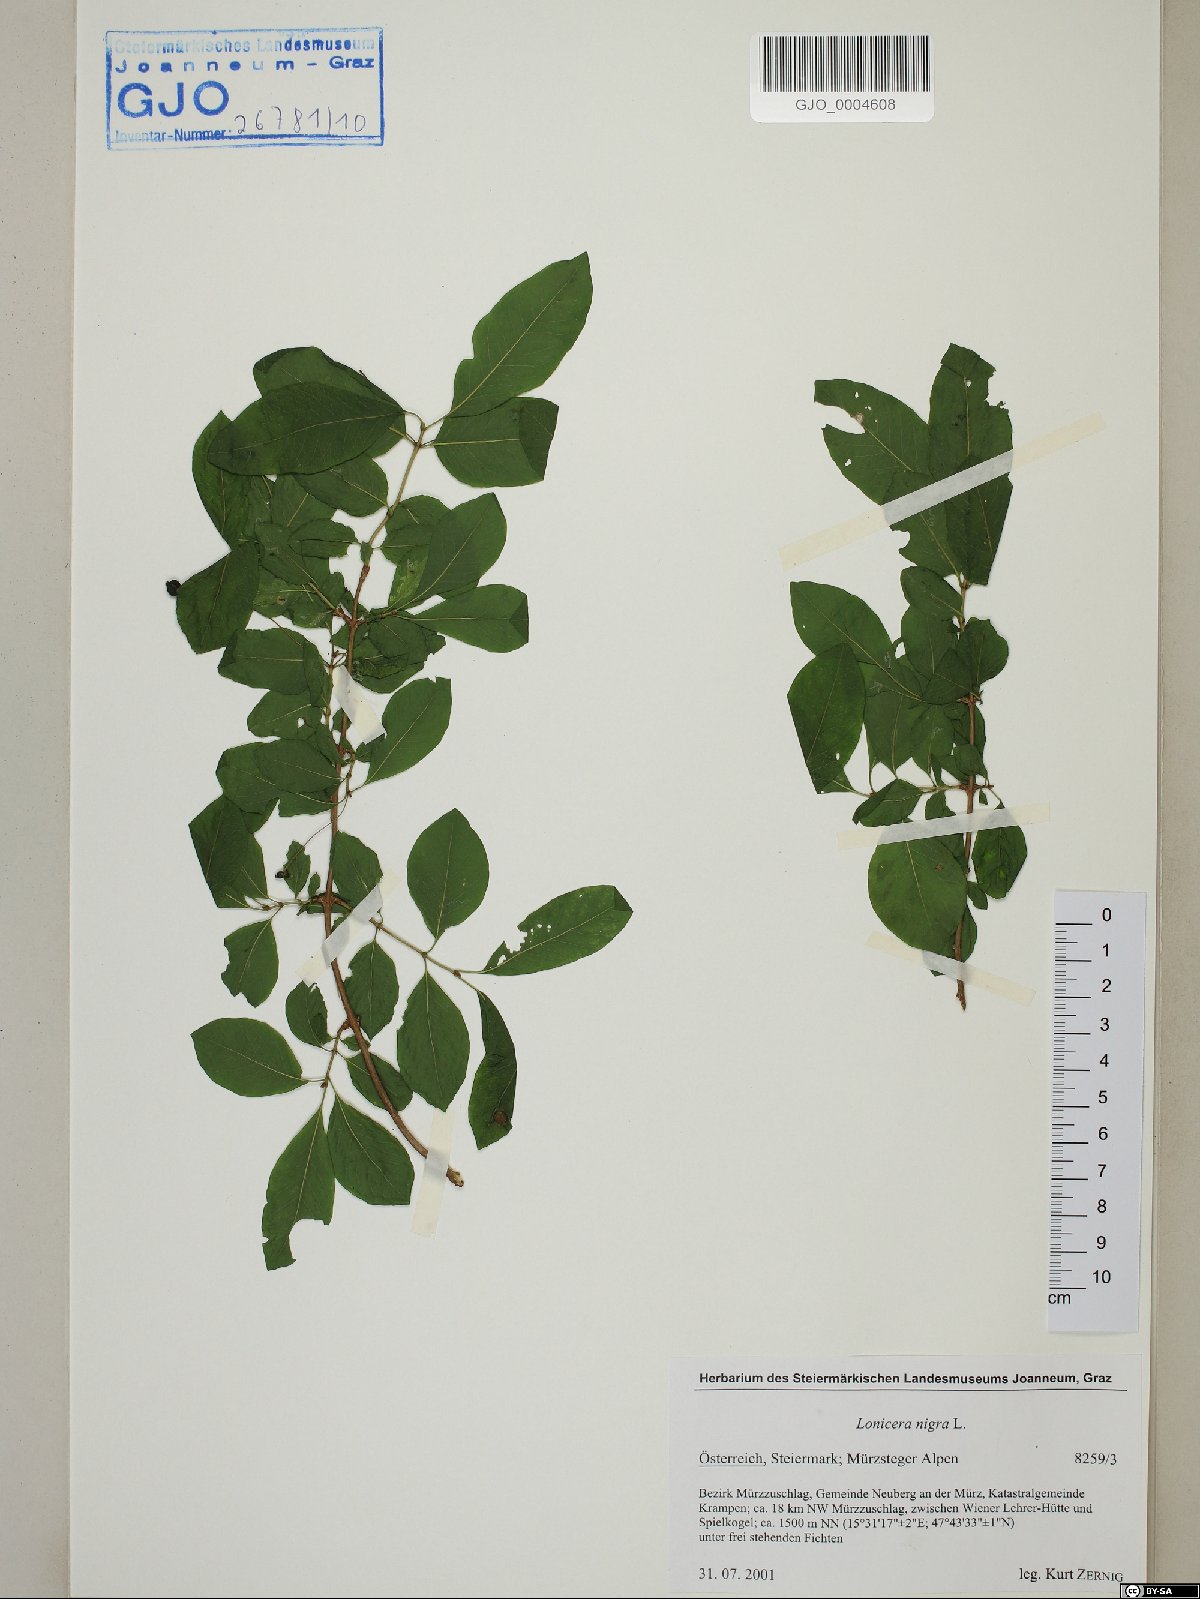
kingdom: Plantae
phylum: Tracheophyta
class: Magnoliopsida
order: Dipsacales
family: Caprifoliaceae
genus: Lonicera
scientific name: Lonicera nigra
